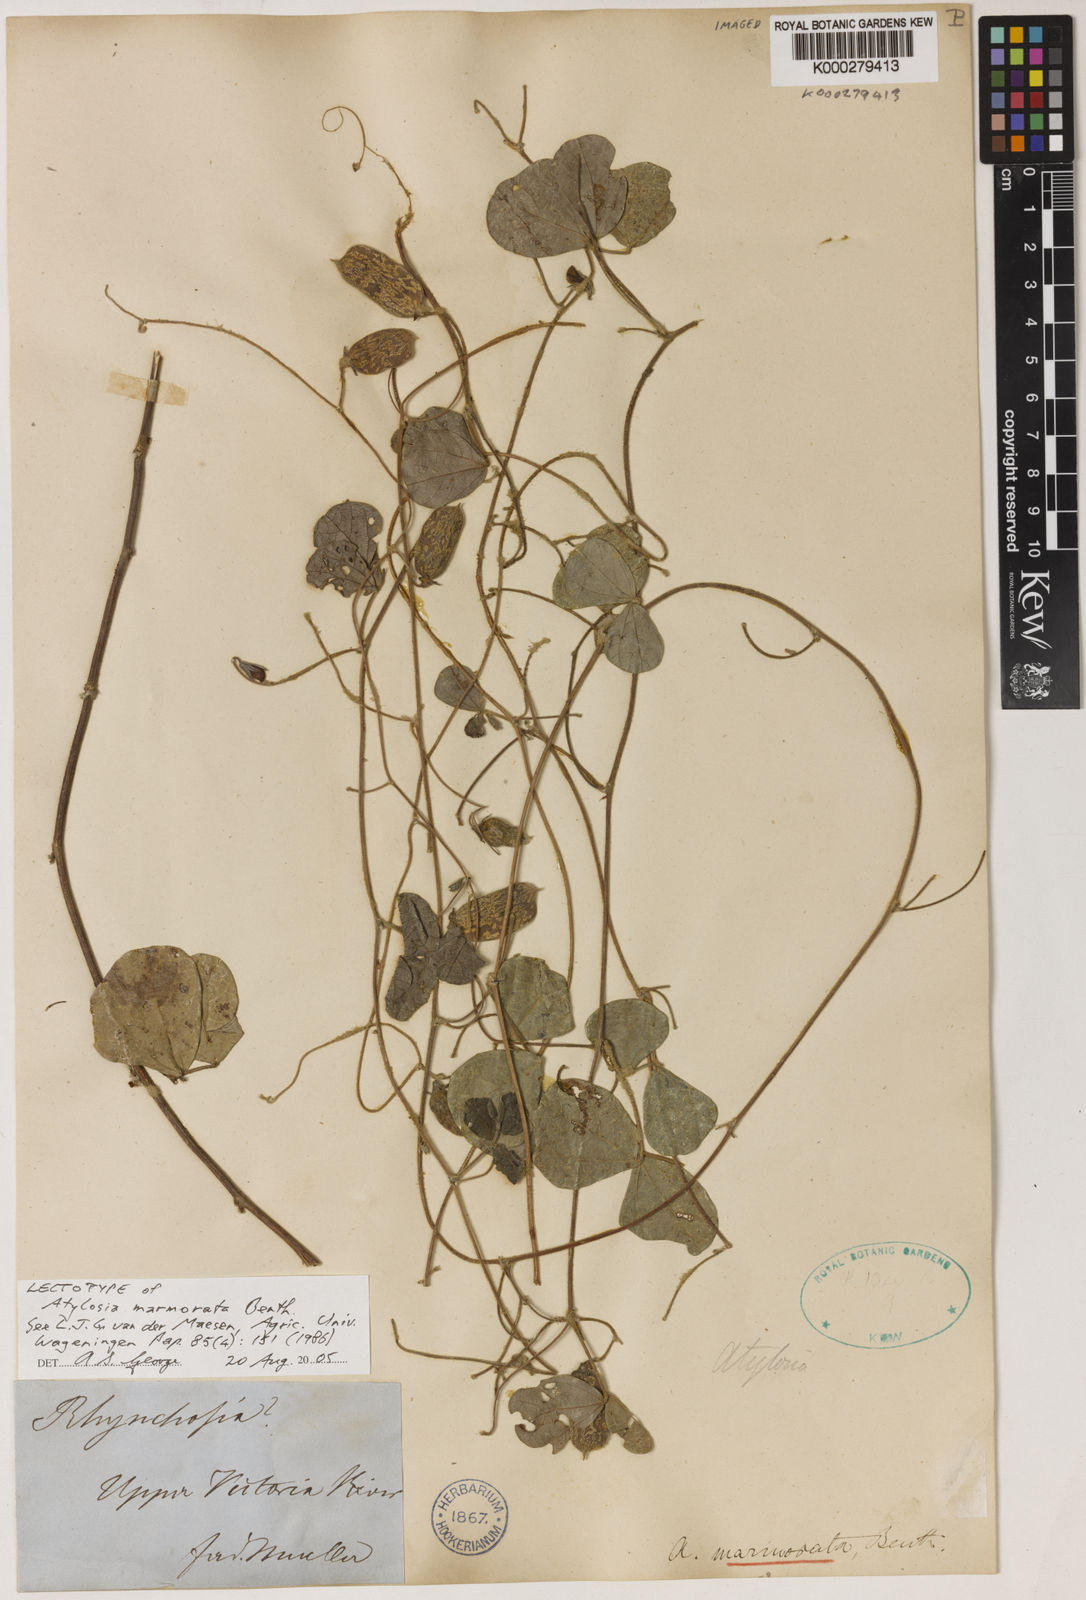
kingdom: Plantae
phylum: Tracheophyta
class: Magnoliopsida
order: Fabales
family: Fabaceae
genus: Cajanus
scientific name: Cajanus marmoratus
